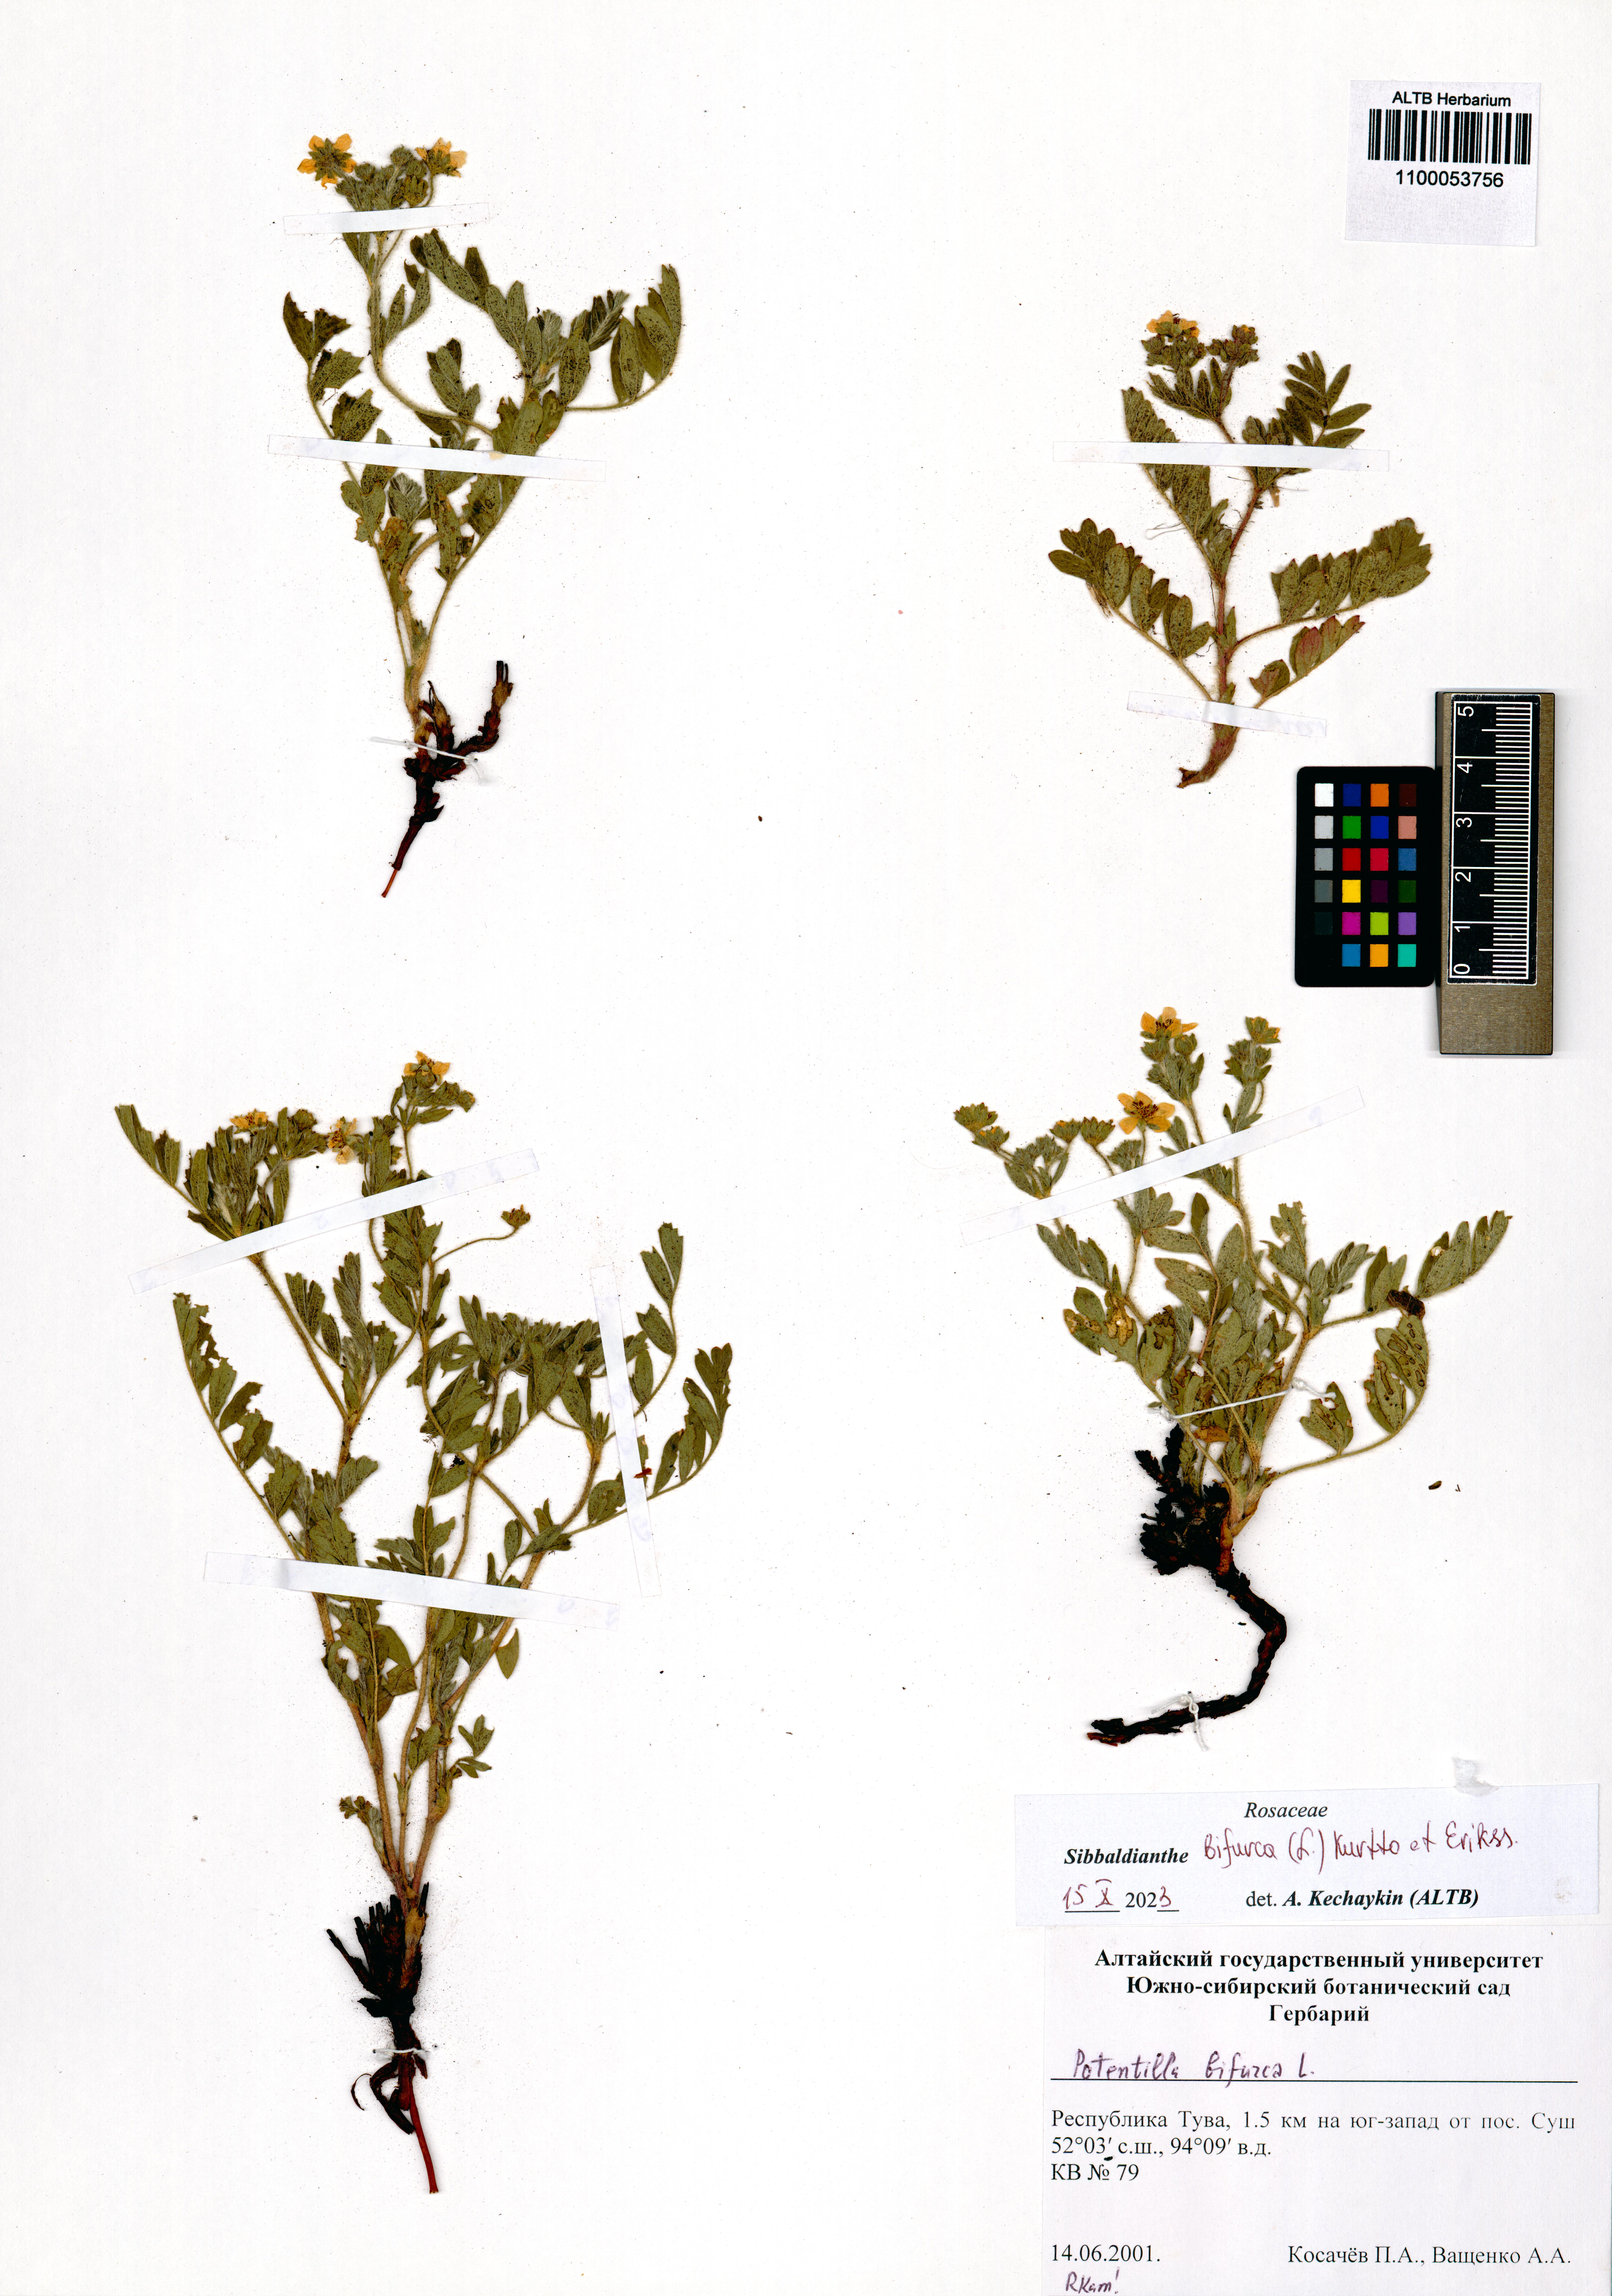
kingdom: Plantae
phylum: Tracheophyta
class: Magnoliopsida
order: Rosales
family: Rosaceae
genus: Sibbaldianthe
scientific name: Sibbaldianthe bifurca
